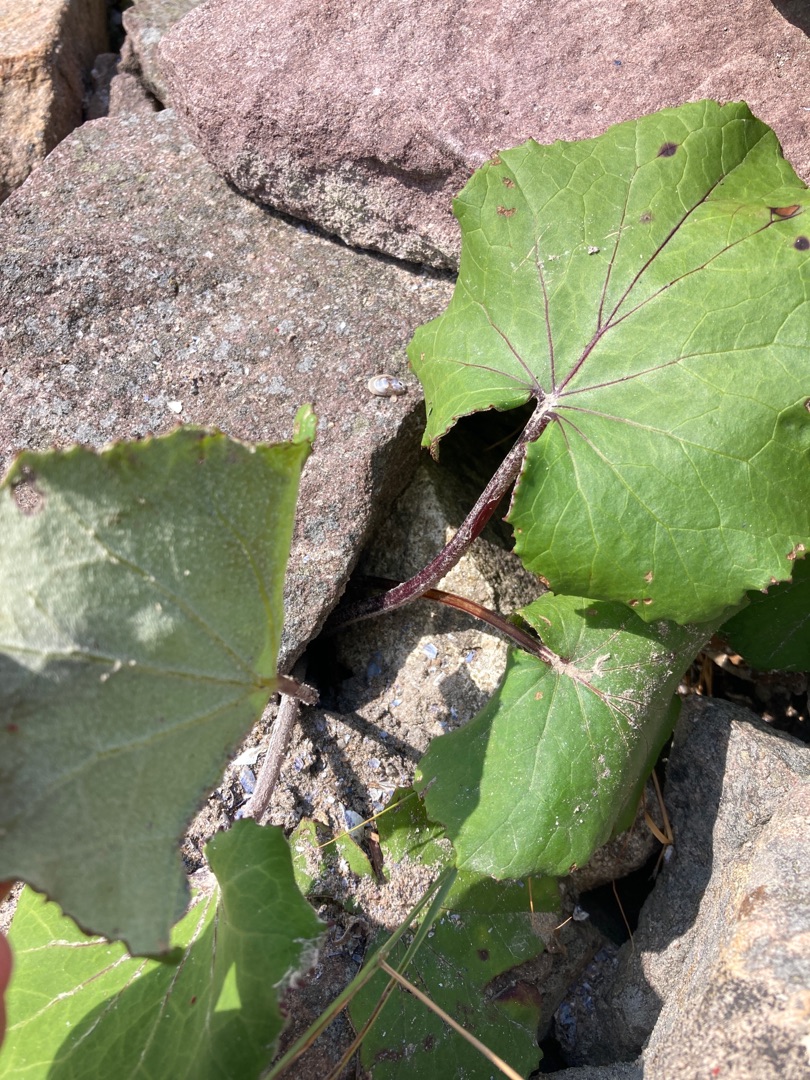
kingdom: Plantae
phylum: Tracheophyta
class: Magnoliopsida
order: Asterales
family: Asteraceae
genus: Tussilago
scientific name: Tussilago farfara
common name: Følfod
